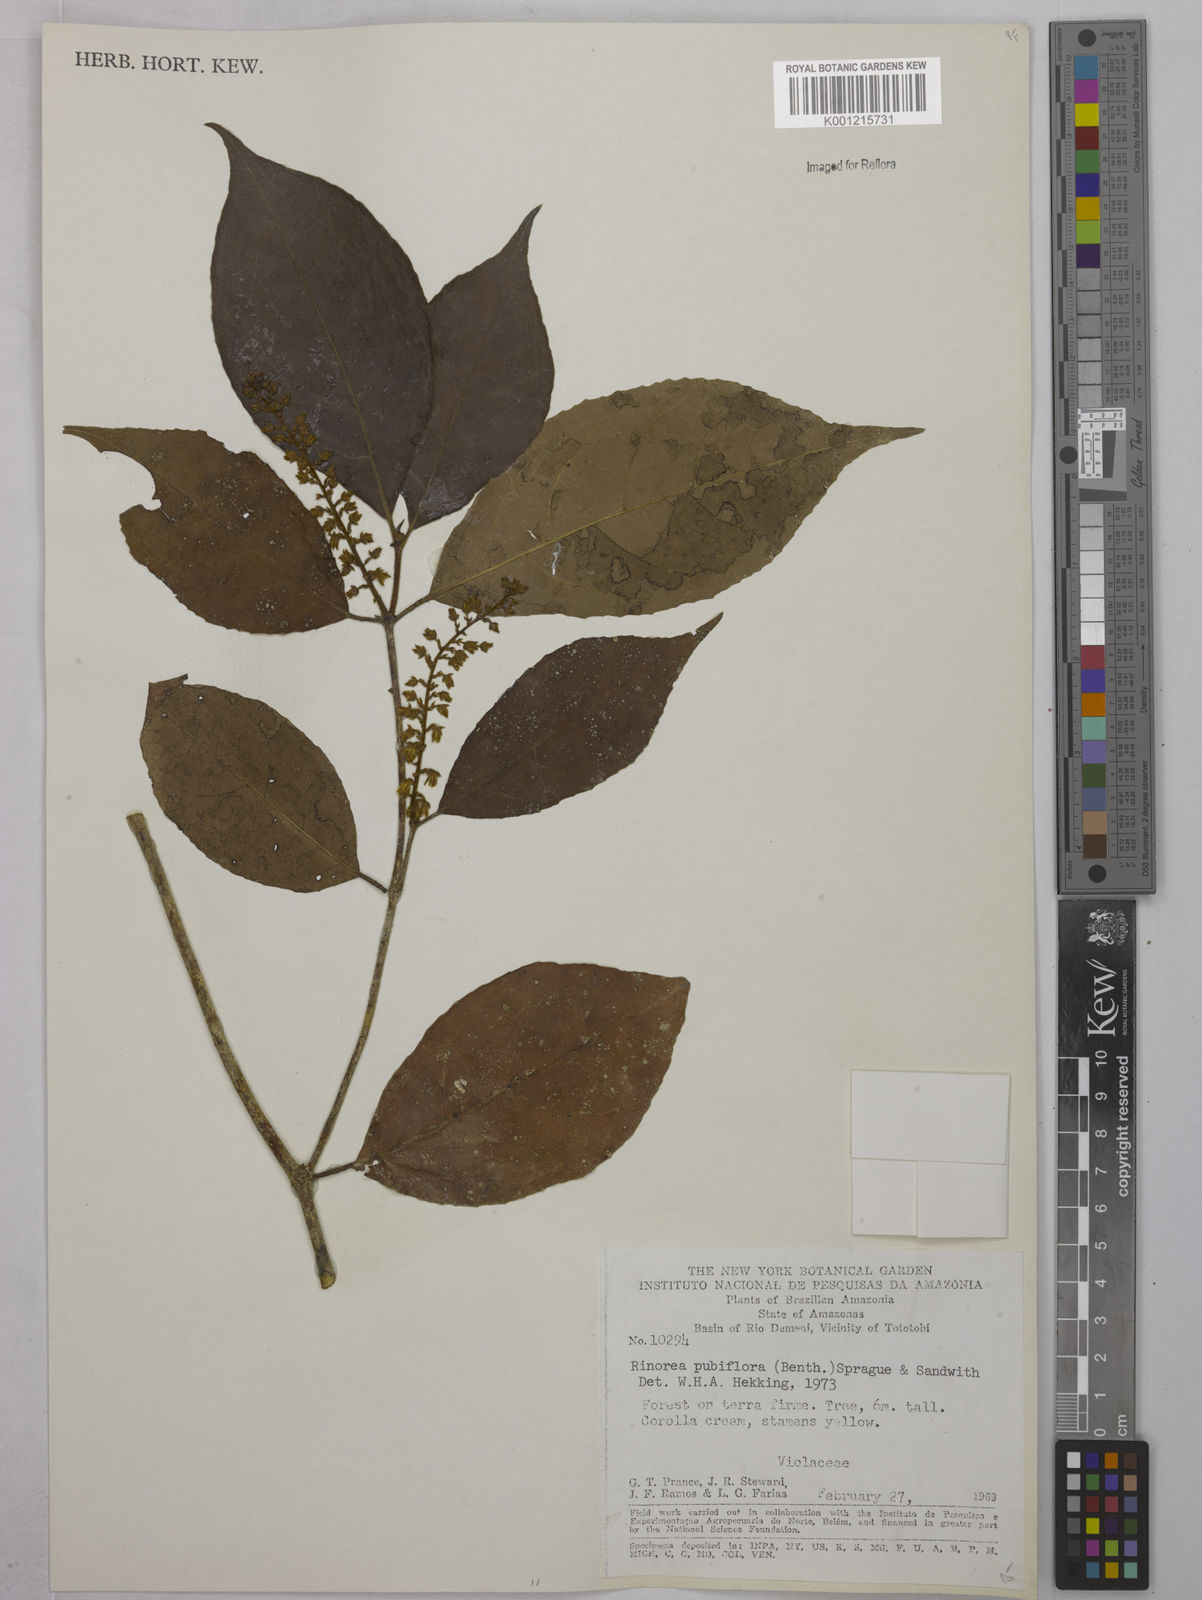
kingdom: Plantae
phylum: Tracheophyta
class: Magnoliopsida
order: Malpighiales
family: Violaceae
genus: Rinorea
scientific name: Rinorea pubiflora
